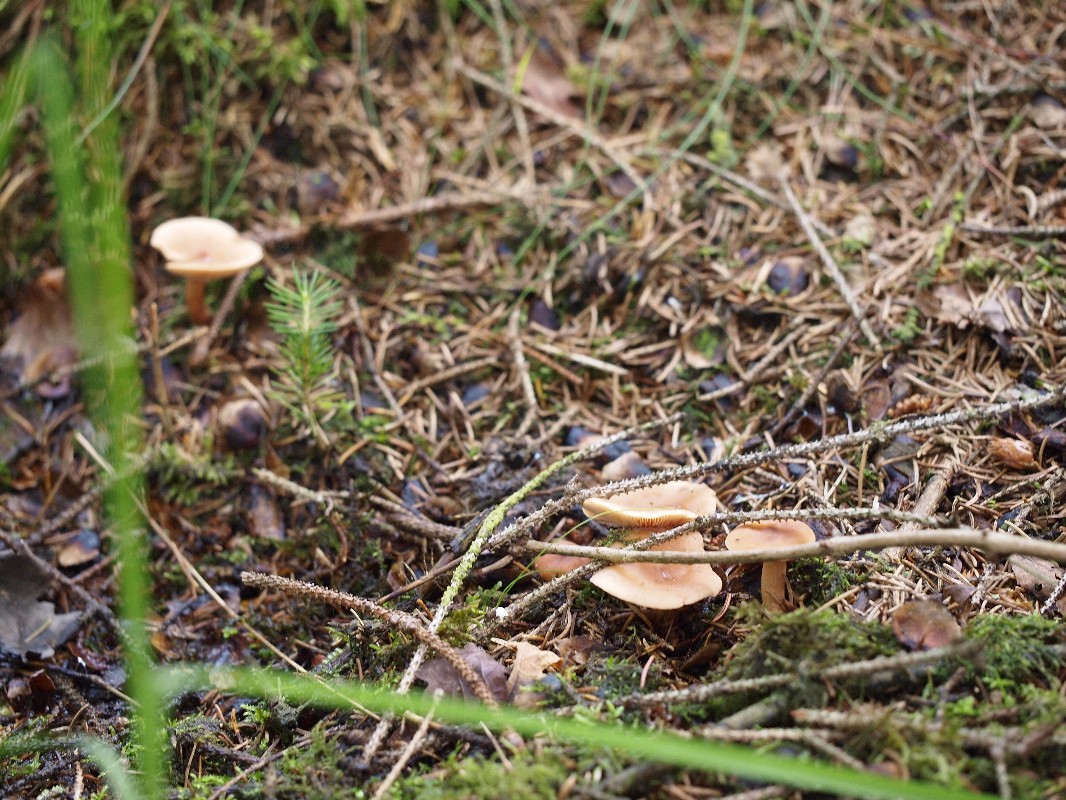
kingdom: Fungi
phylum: Basidiomycota
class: Agaricomycetes
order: Russulales
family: Russulaceae
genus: Lactarius
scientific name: Lactarius tabidus
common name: rynket mælkehat
